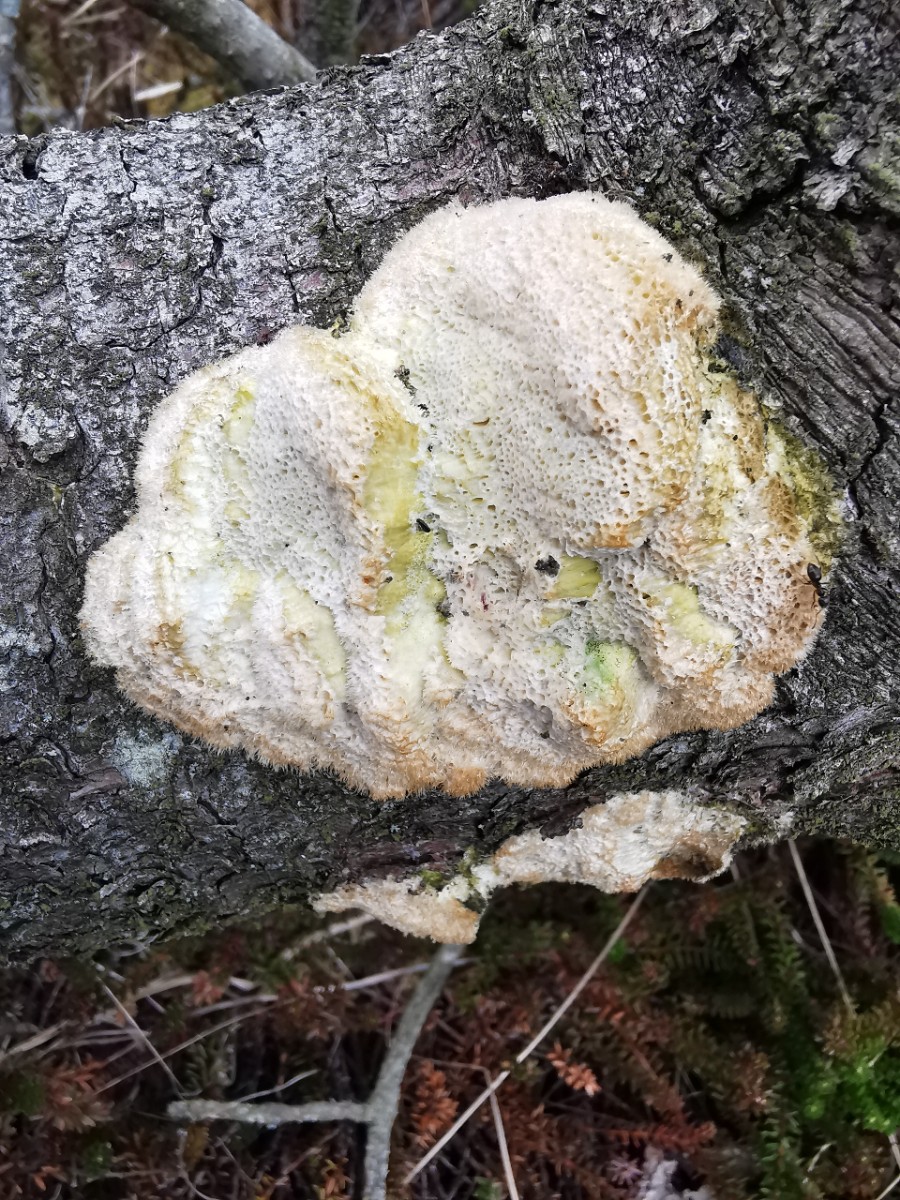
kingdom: Fungi
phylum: Basidiomycota
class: Agaricomycetes
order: Polyporales
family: Polyporaceae
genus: Diplomitoporus
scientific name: Diplomitoporus flavescens
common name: fyrre-elastikporesvamp
